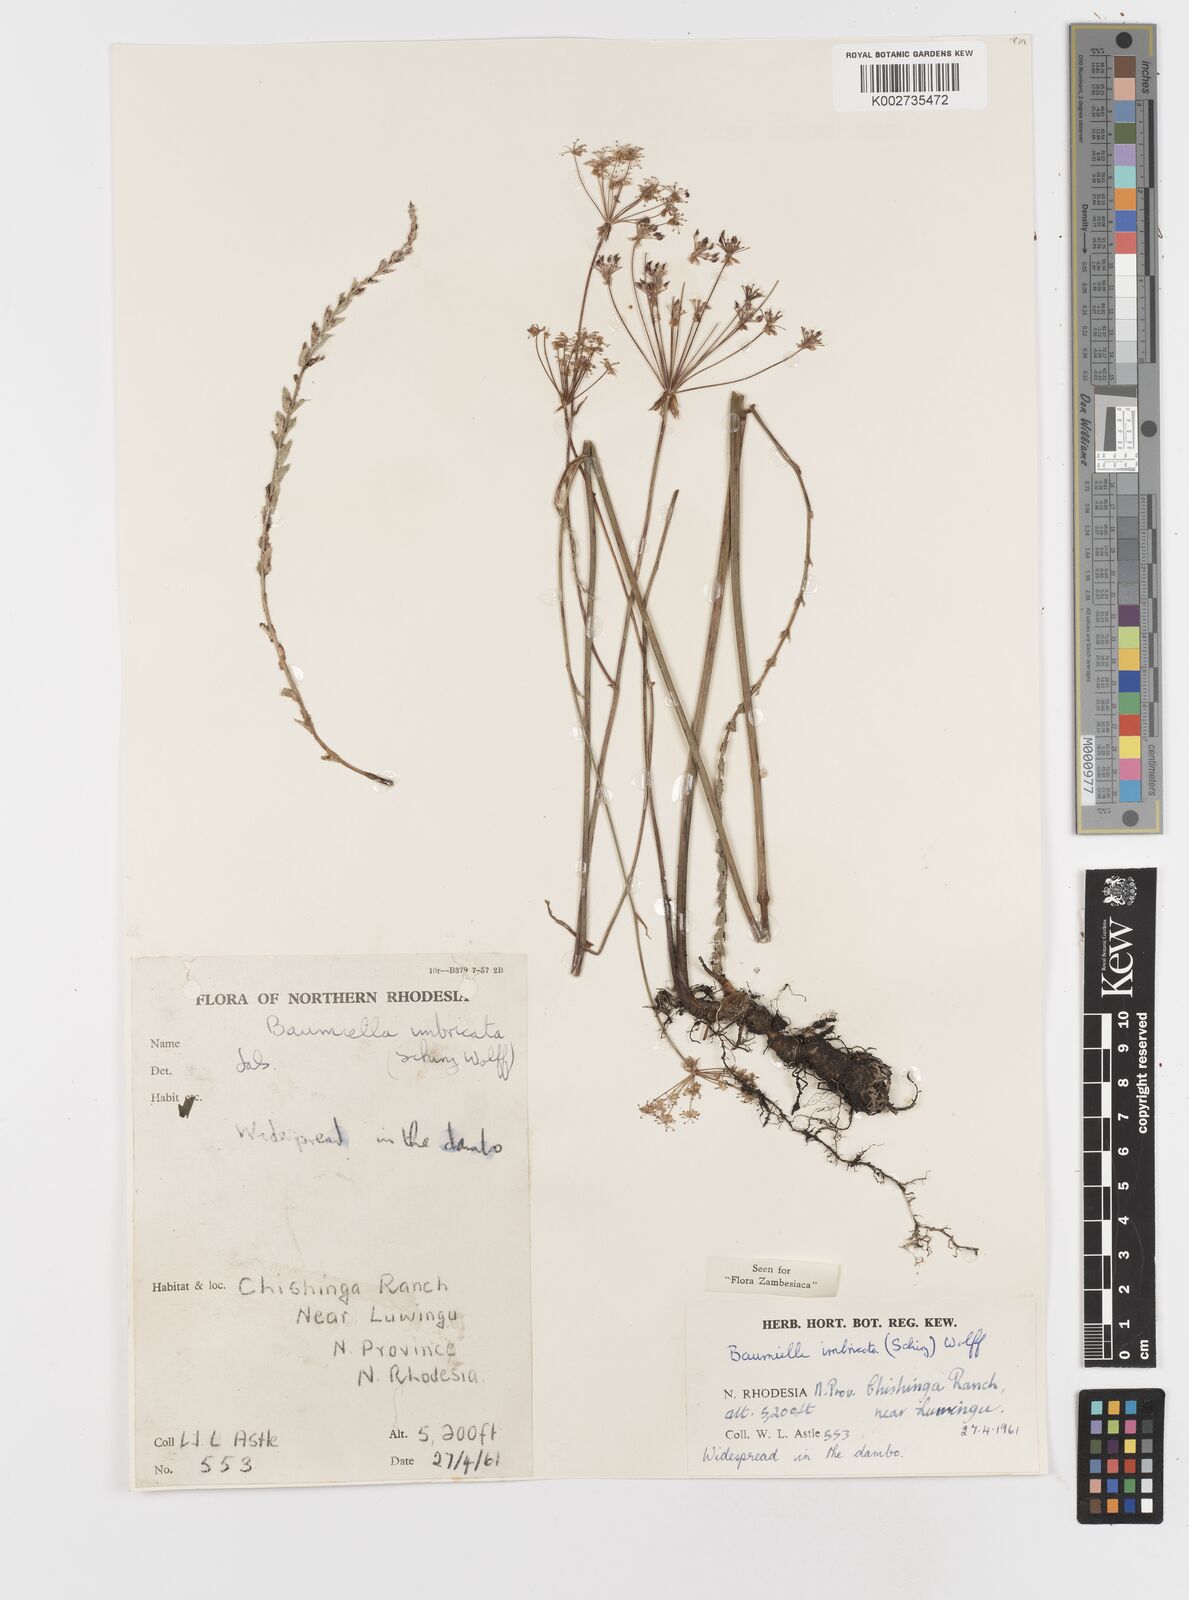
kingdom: Plantae
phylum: Tracheophyta
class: Magnoliopsida
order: Apiales
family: Apiaceae
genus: Berula
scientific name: Berula imbricata
